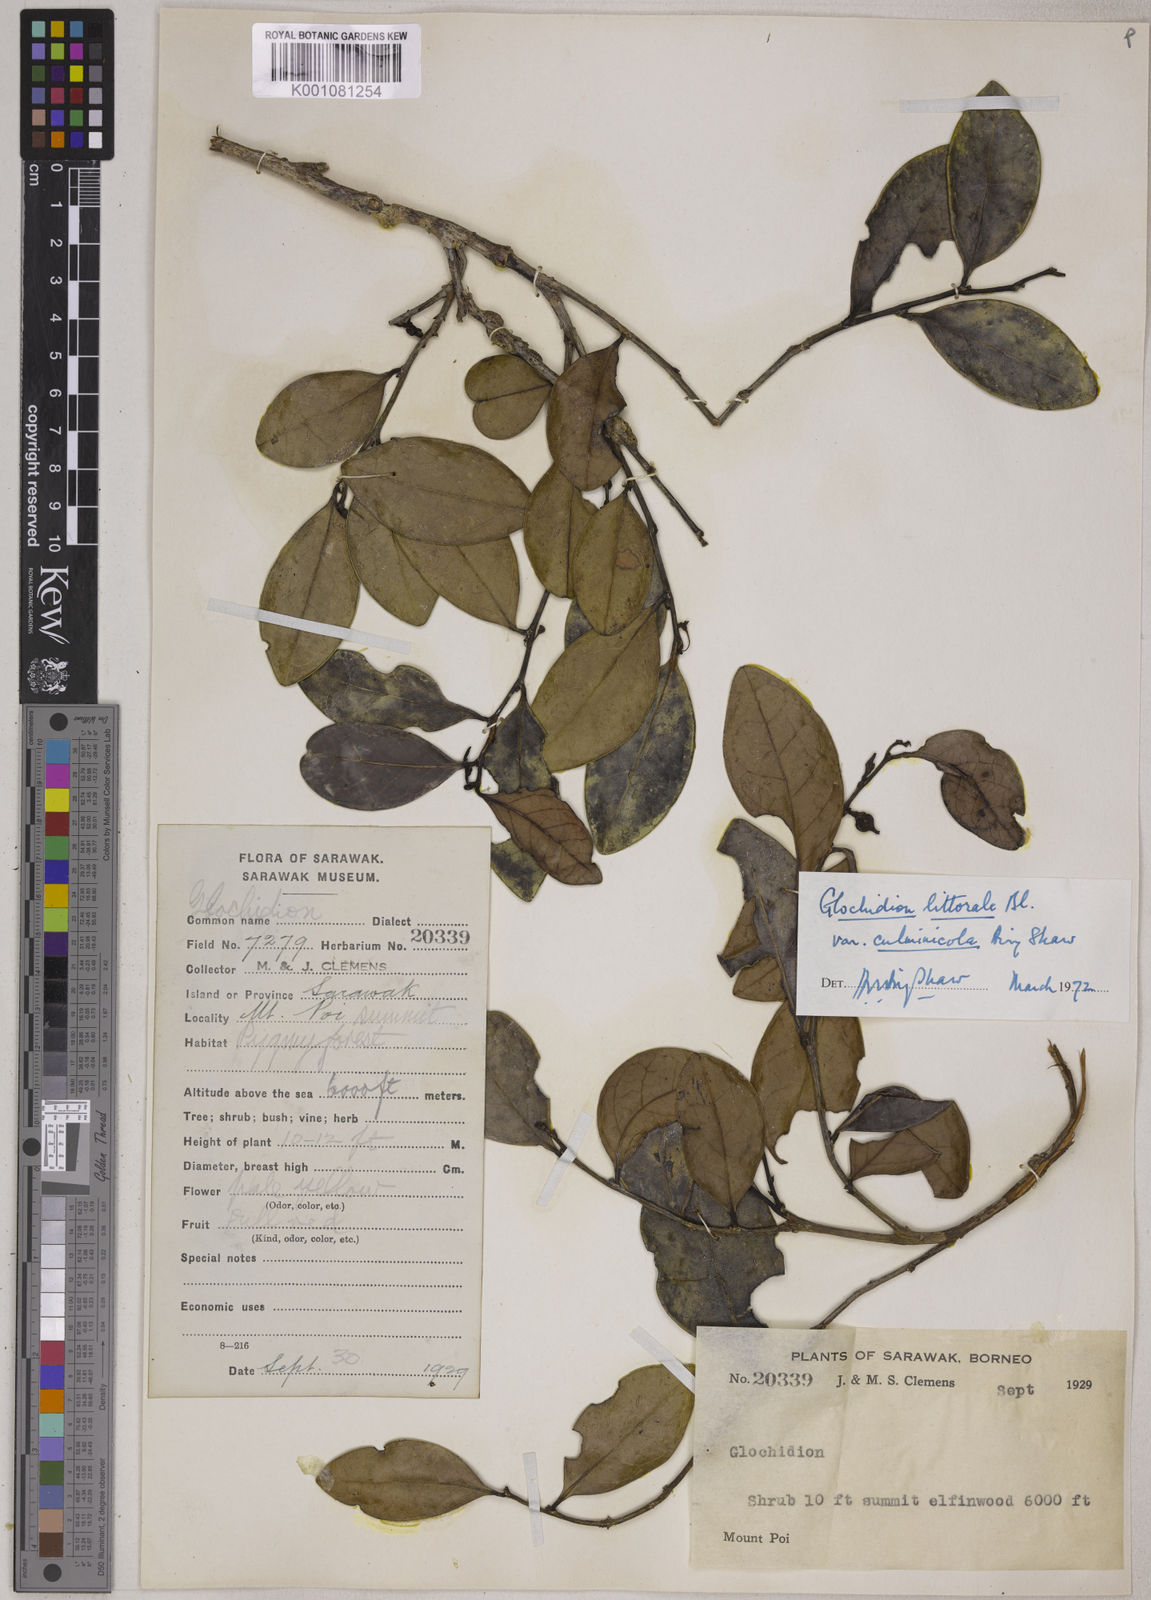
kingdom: Plantae
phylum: Tracheophyta
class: Magnoliopsida
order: Malpighiales
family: Phyllanthaceae
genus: Glochidion
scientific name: Glochidion littorale
